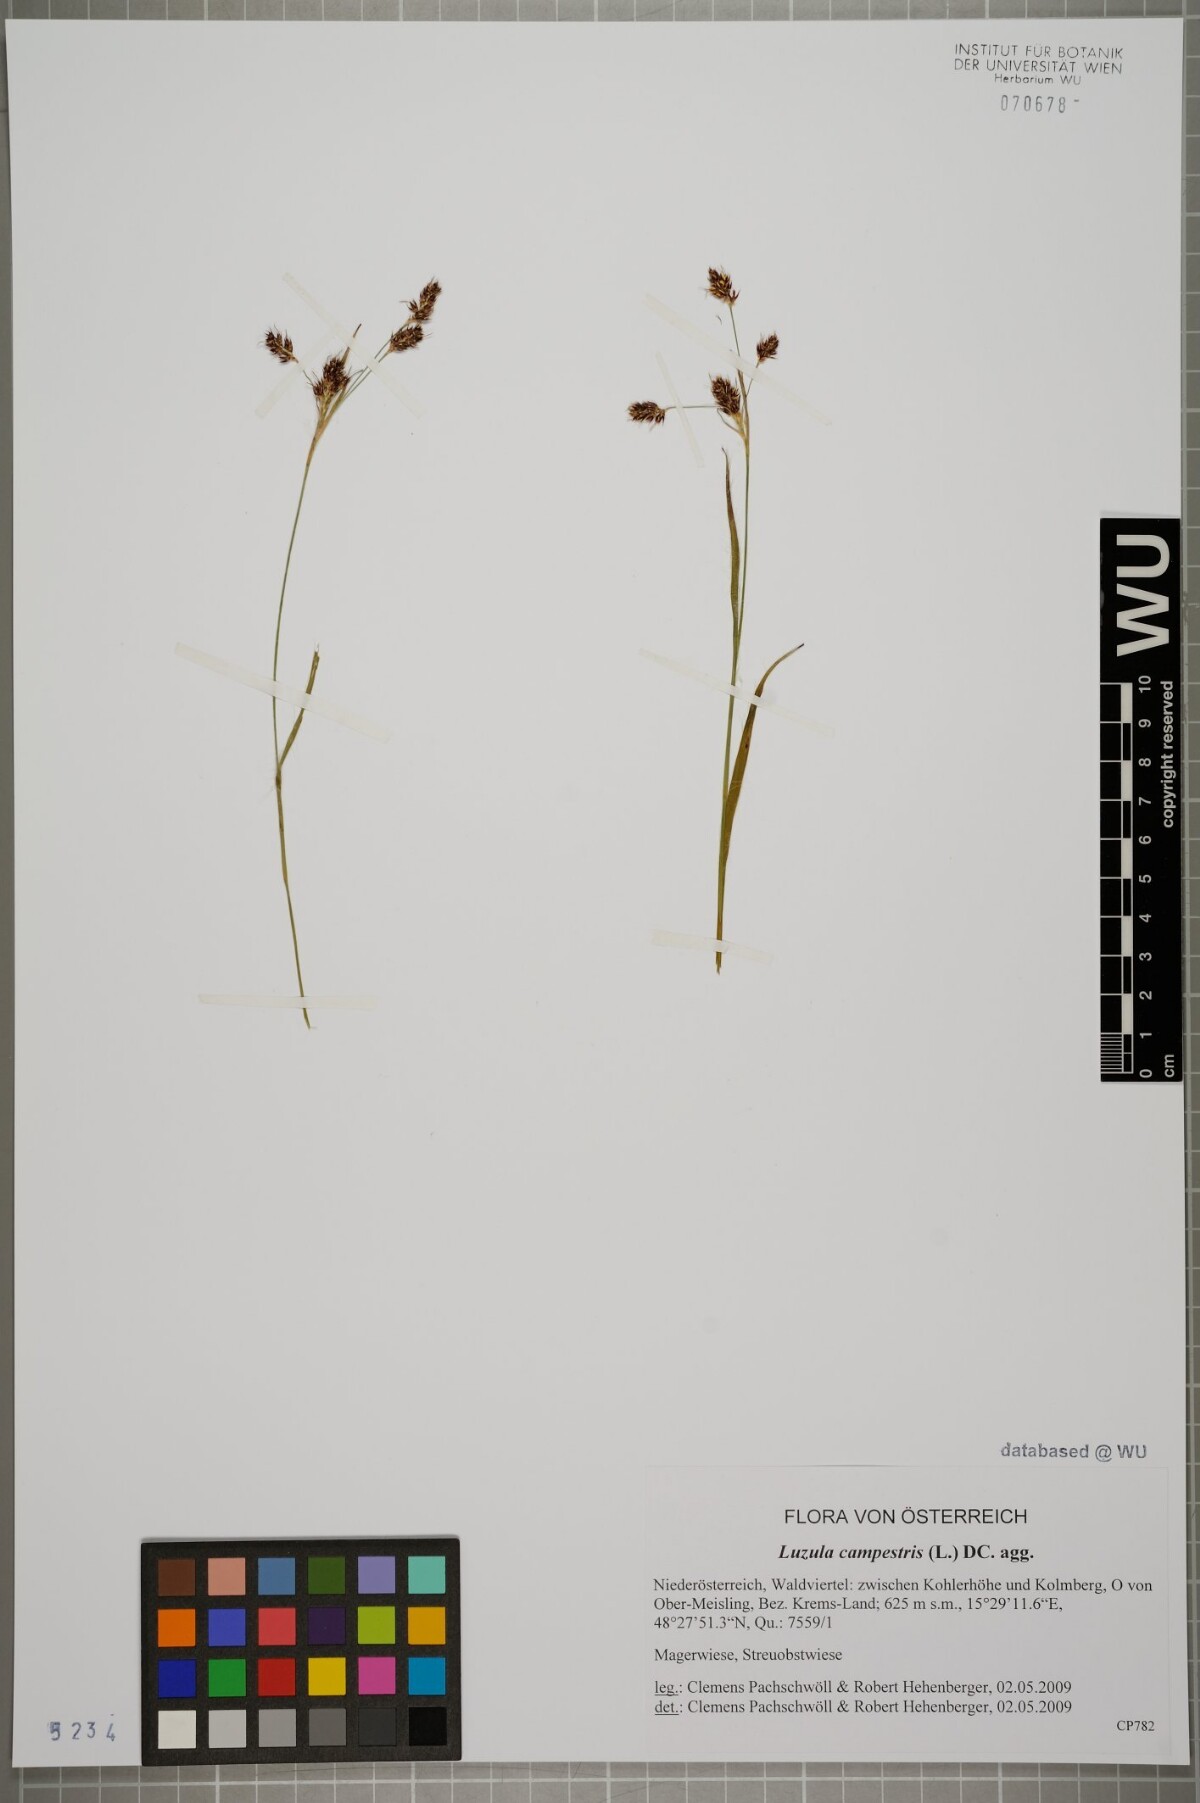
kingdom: Plantae
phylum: Tracheophyta
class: Liliopsida
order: Poales
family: Juncaceae
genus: Luzula
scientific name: Luzula campestris
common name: Field wood-rush
